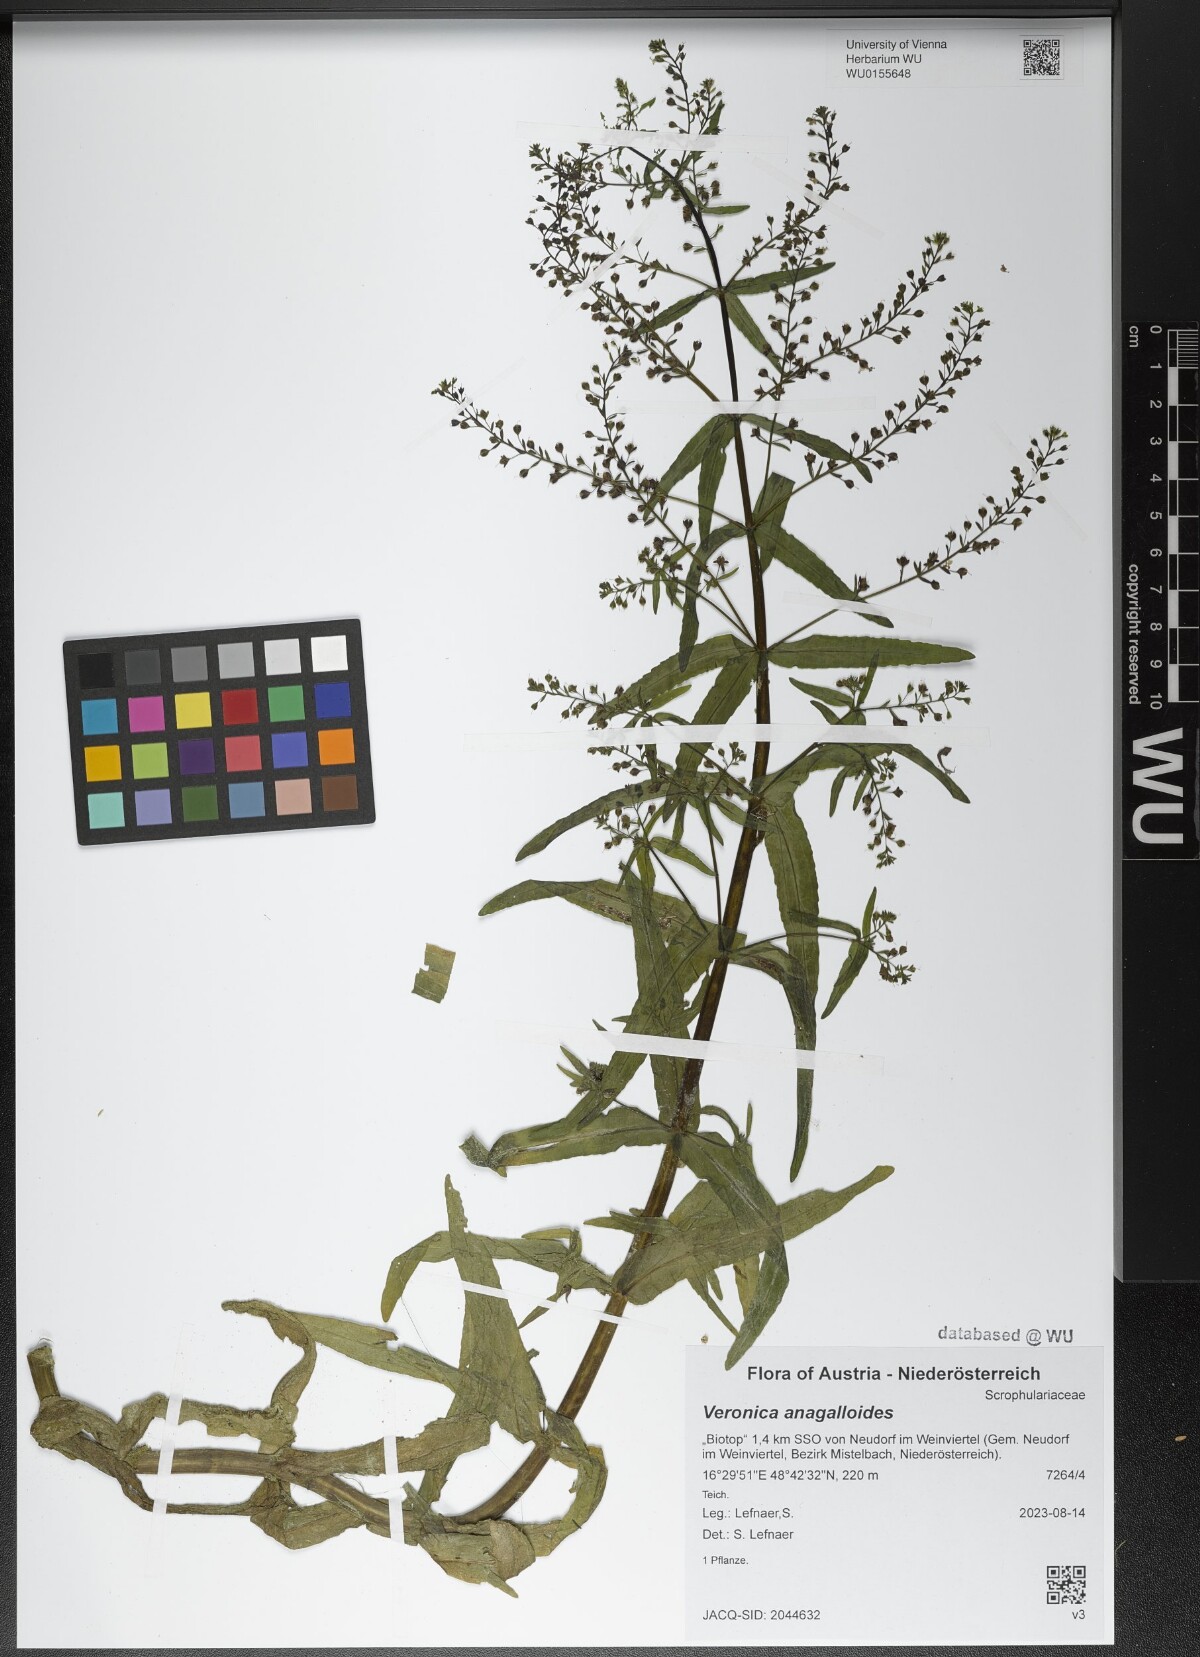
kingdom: Plantae
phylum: Tracheophyta
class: Magnoliopsida
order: Lamiales
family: Plantaginaceae
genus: Veronica
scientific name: Veronica anagalloides
